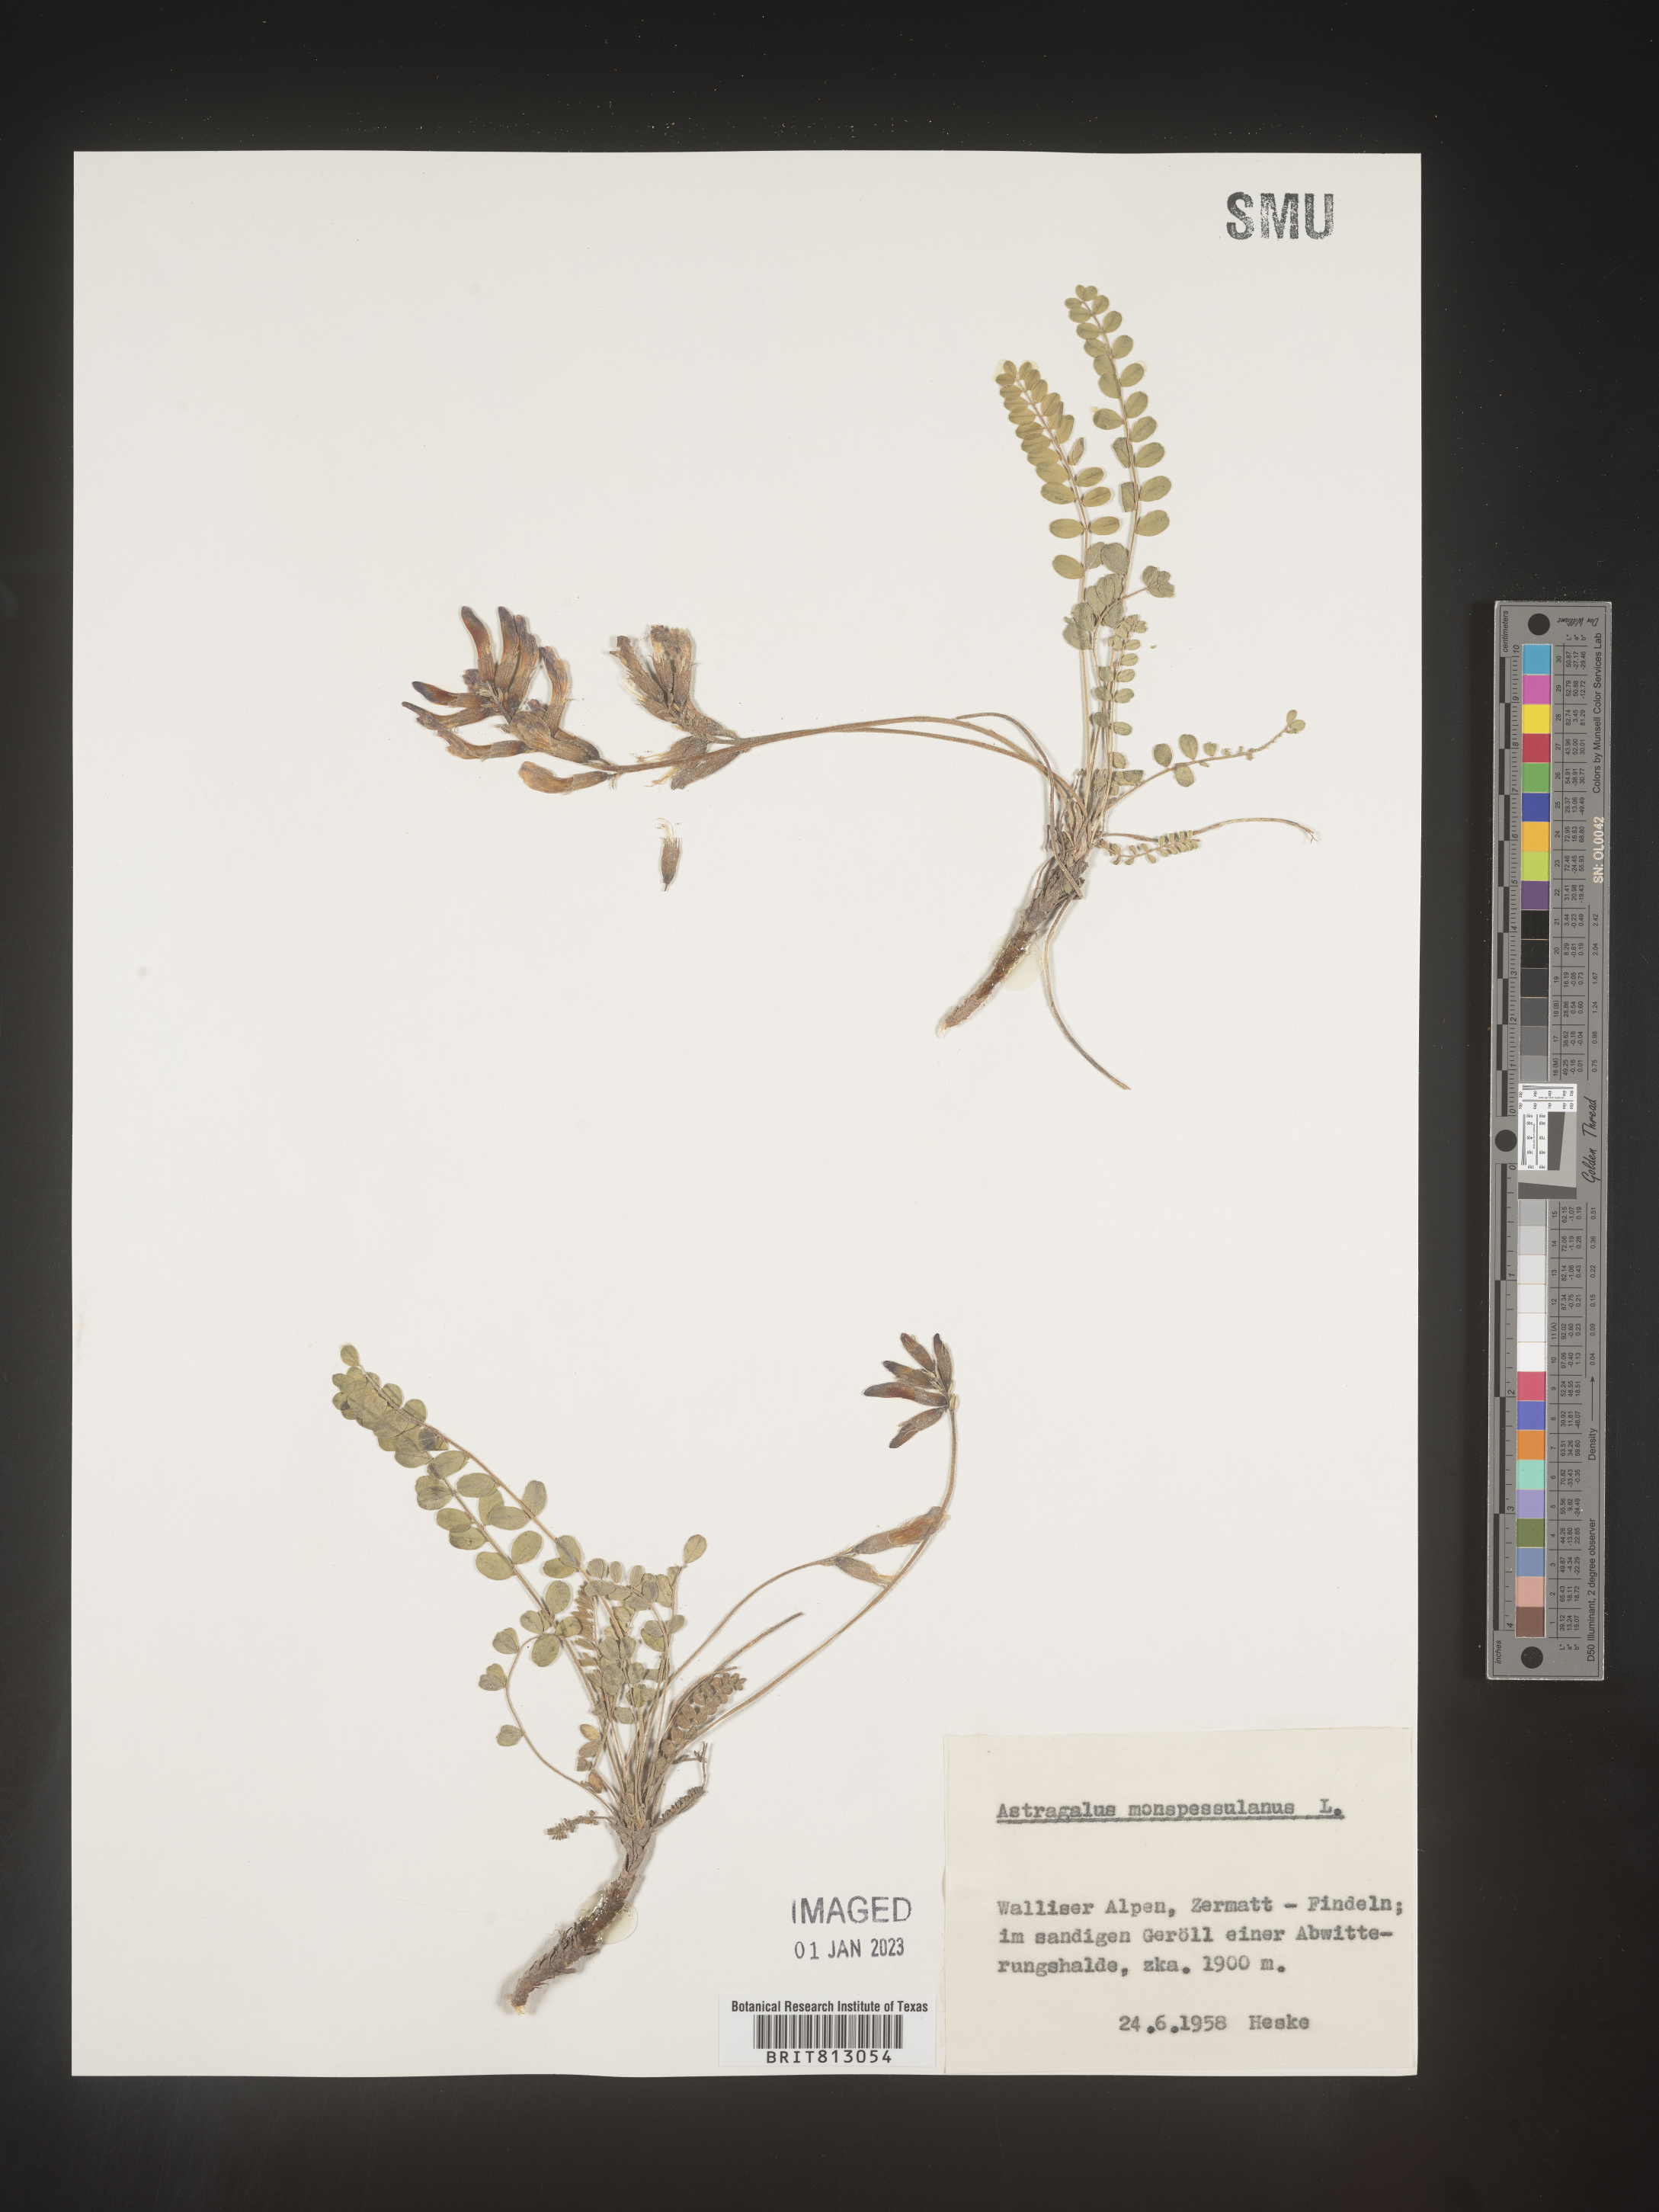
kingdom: Plantae
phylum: Tracheophyta
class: Magnoliopsida
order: Fabales
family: Fabaceae
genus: Astragalus
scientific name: Astragalus
